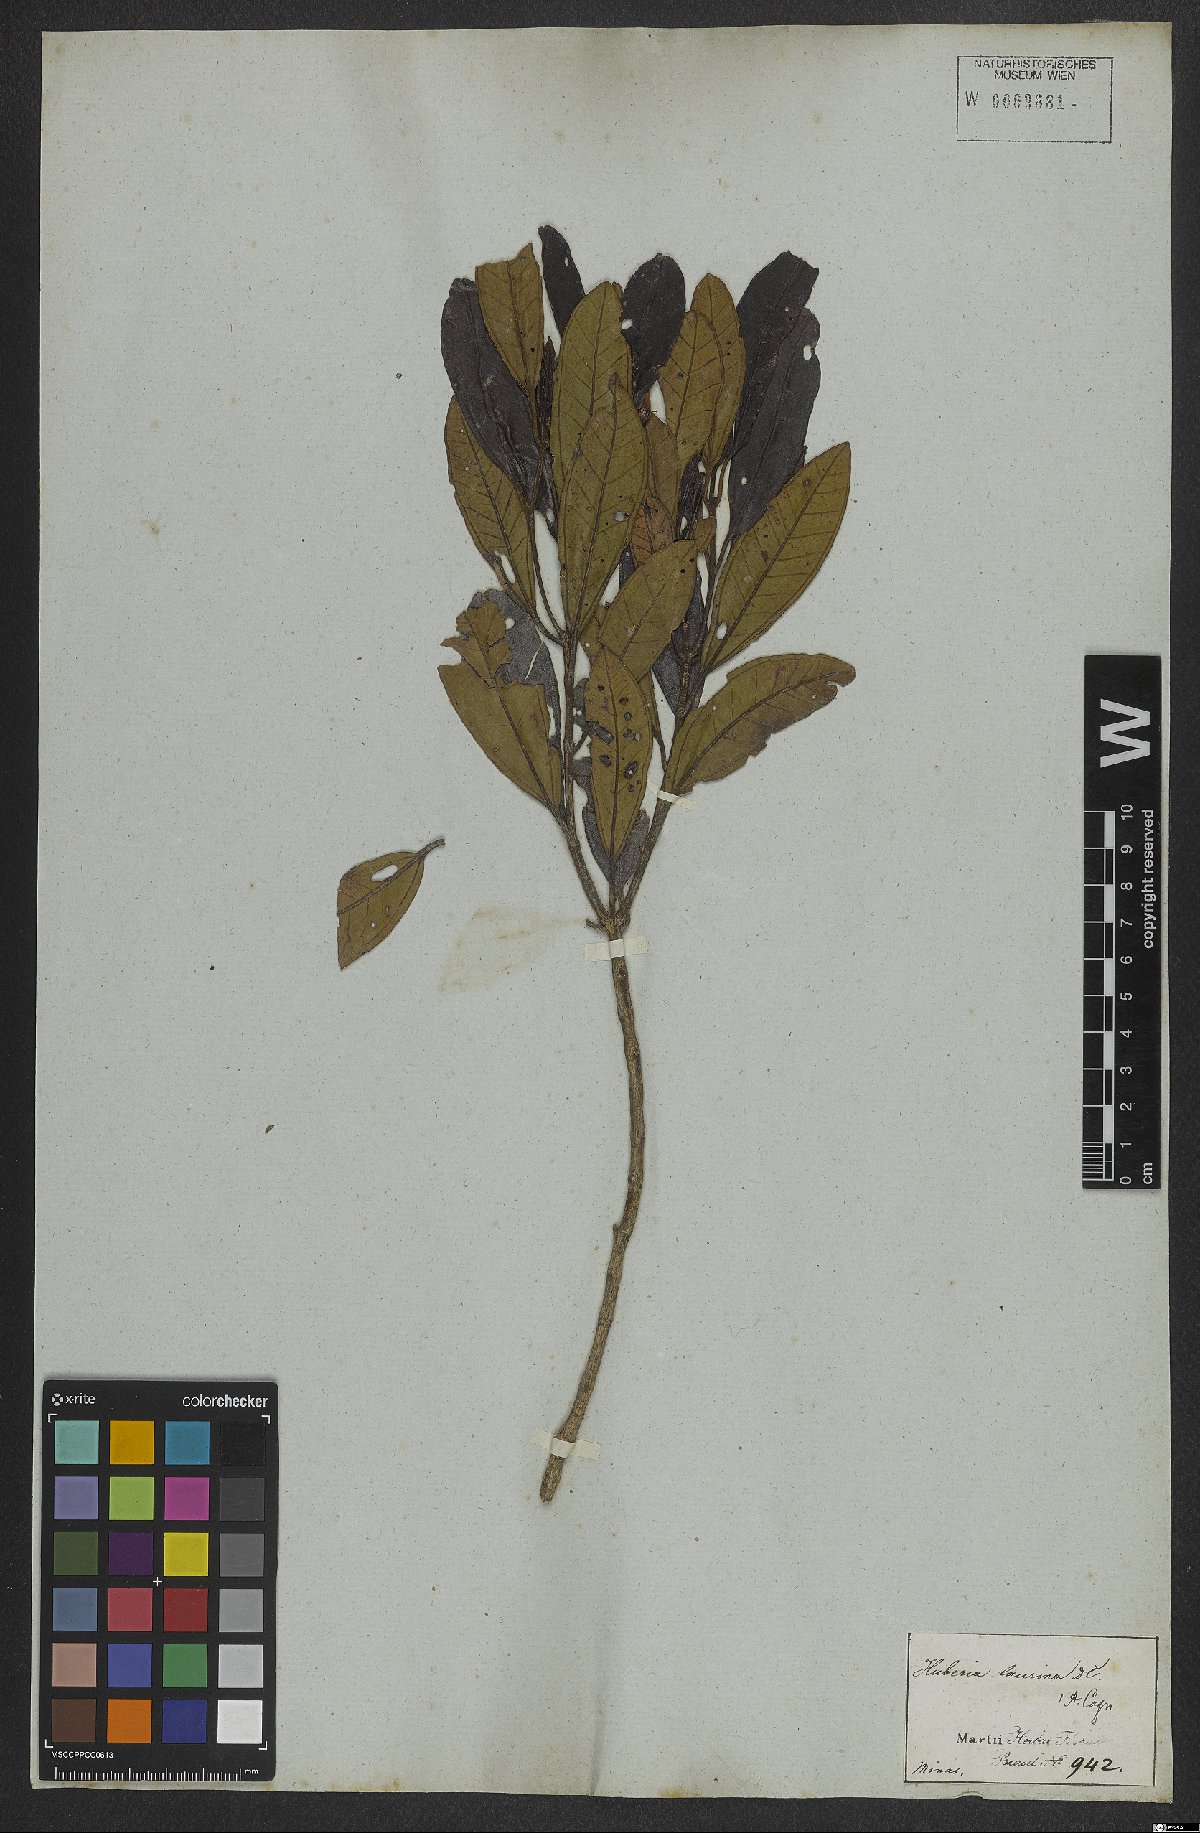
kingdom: Plantae
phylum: Tracheophyta
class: Magnoliopsida
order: Myrtales
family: Melastomataceae
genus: Huberia
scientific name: Huberia laurina
